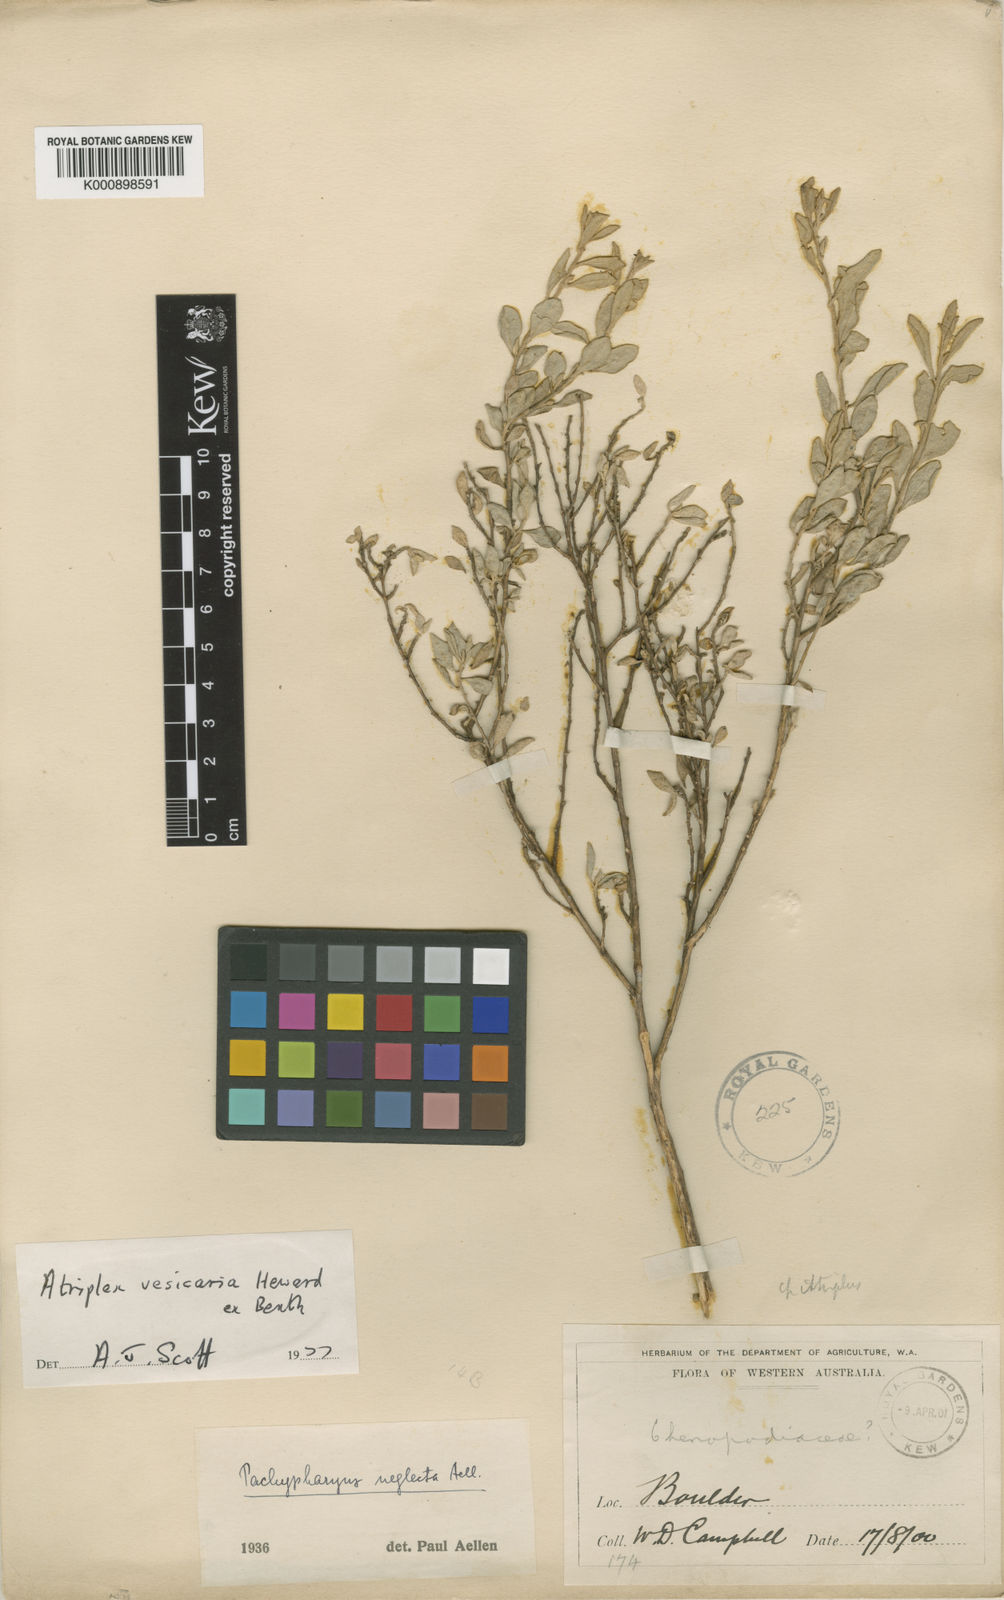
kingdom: Plantae
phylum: Tracheophyta
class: Magnoliopsida
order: Caryophyllales
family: Amaranthaceae
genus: Atriplex
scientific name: Atriplex hymenotheca
